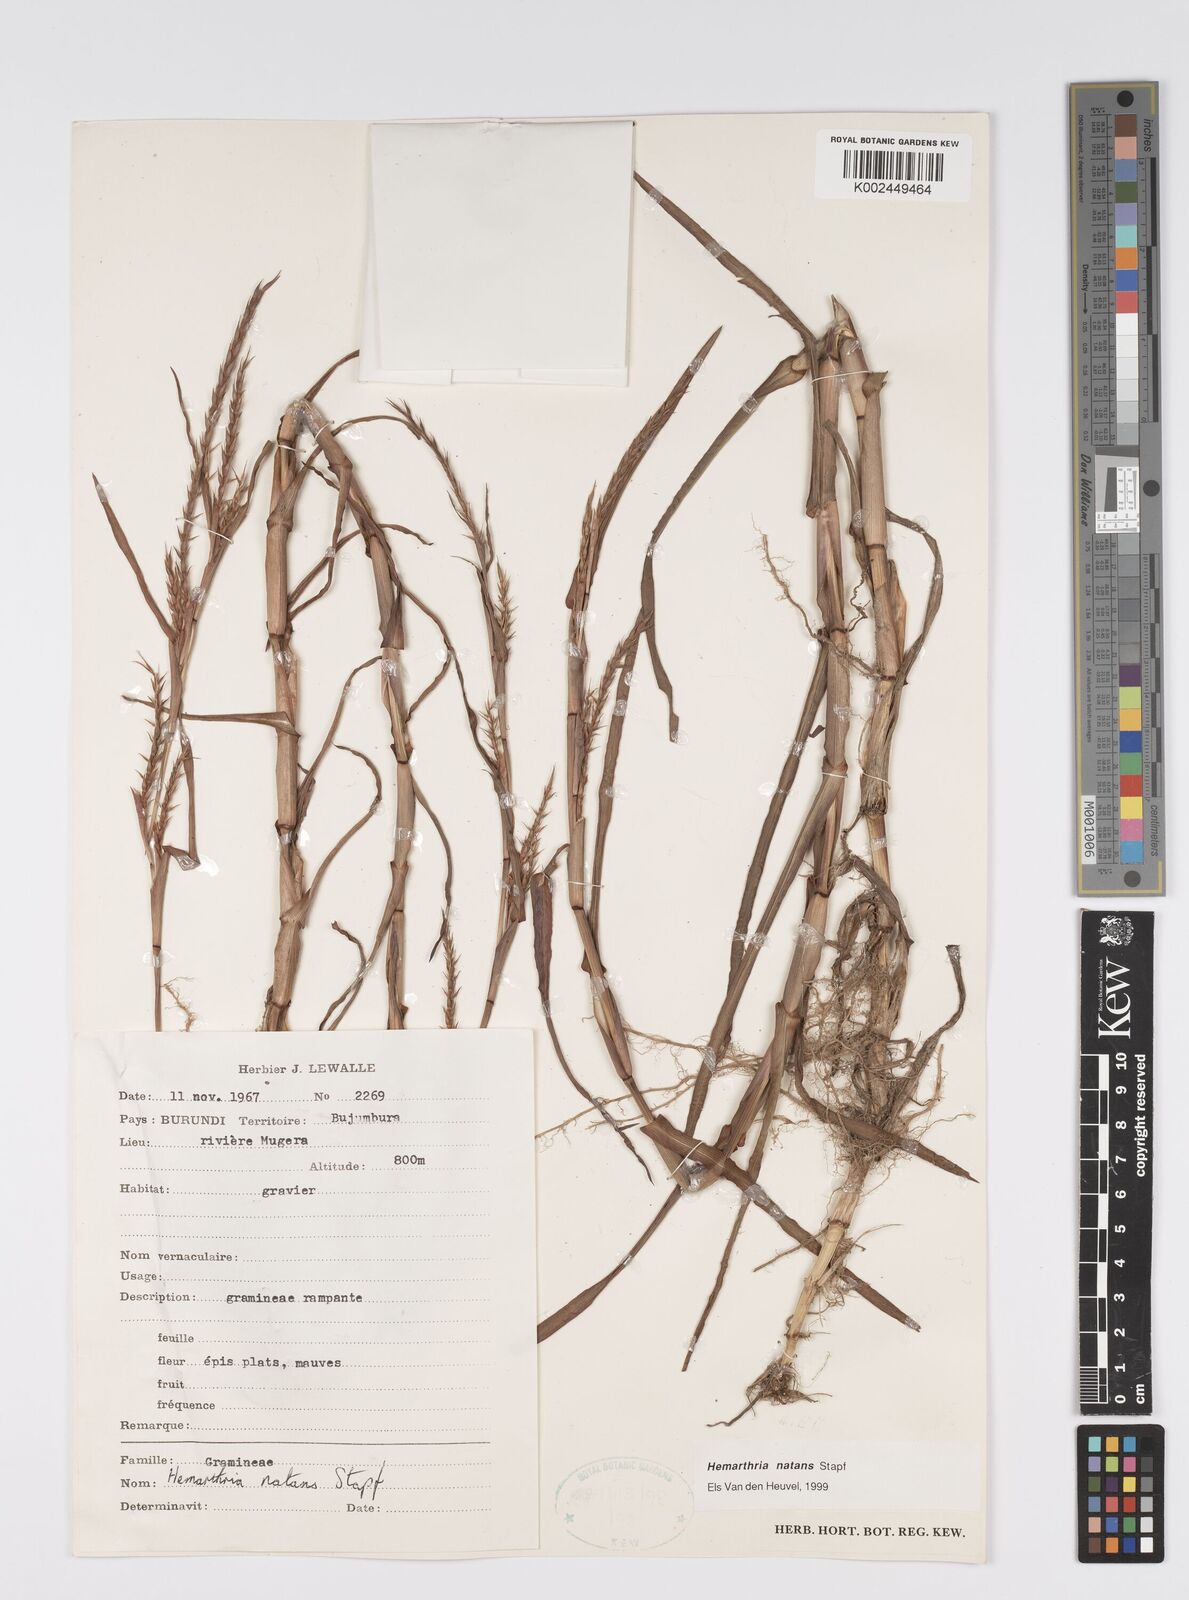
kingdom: Plantae
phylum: Tracheophyta
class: Liliopsida
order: Poales
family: Poaceae
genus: Hemarthria
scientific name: Hemarthria natans
